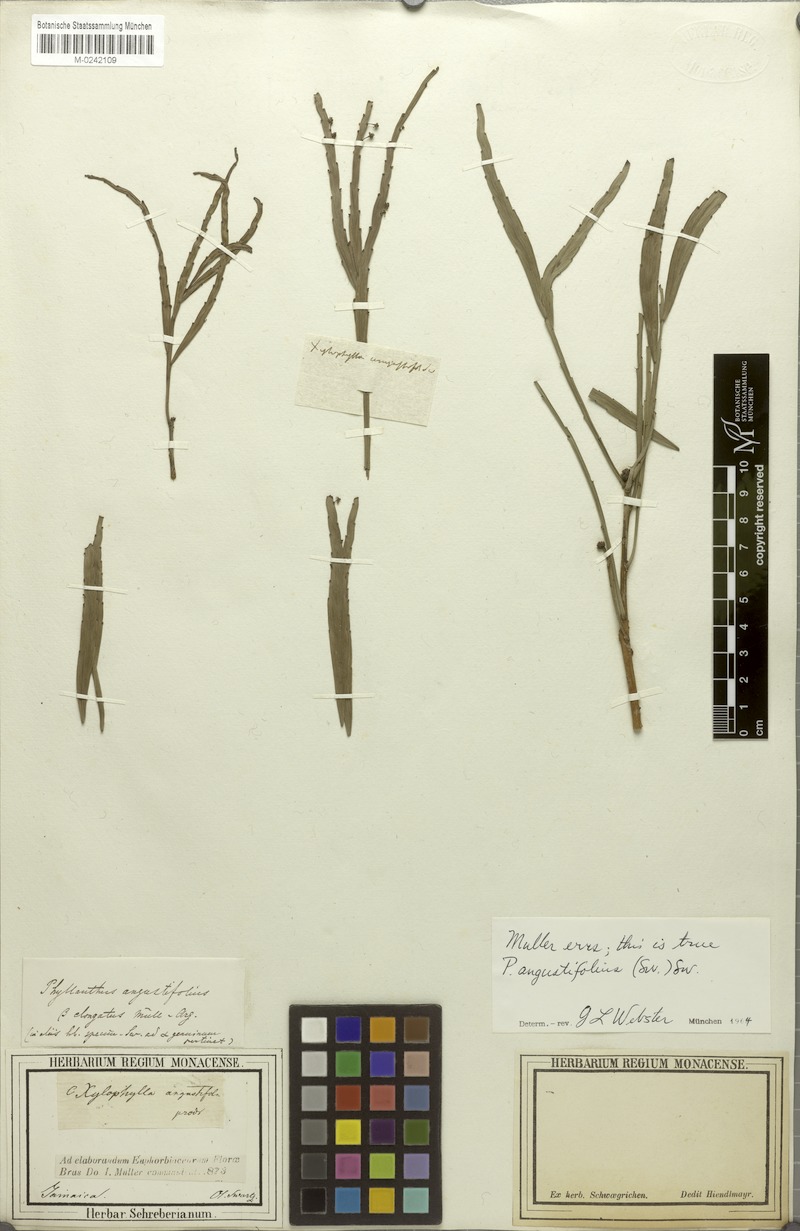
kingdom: Plantae
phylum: Tracheophyta
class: Magnoliopsida
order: Malpighiales
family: Phyllanthaceae
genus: Phyllanthus
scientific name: Phyllanthus angustifolius
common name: Foliage flower
